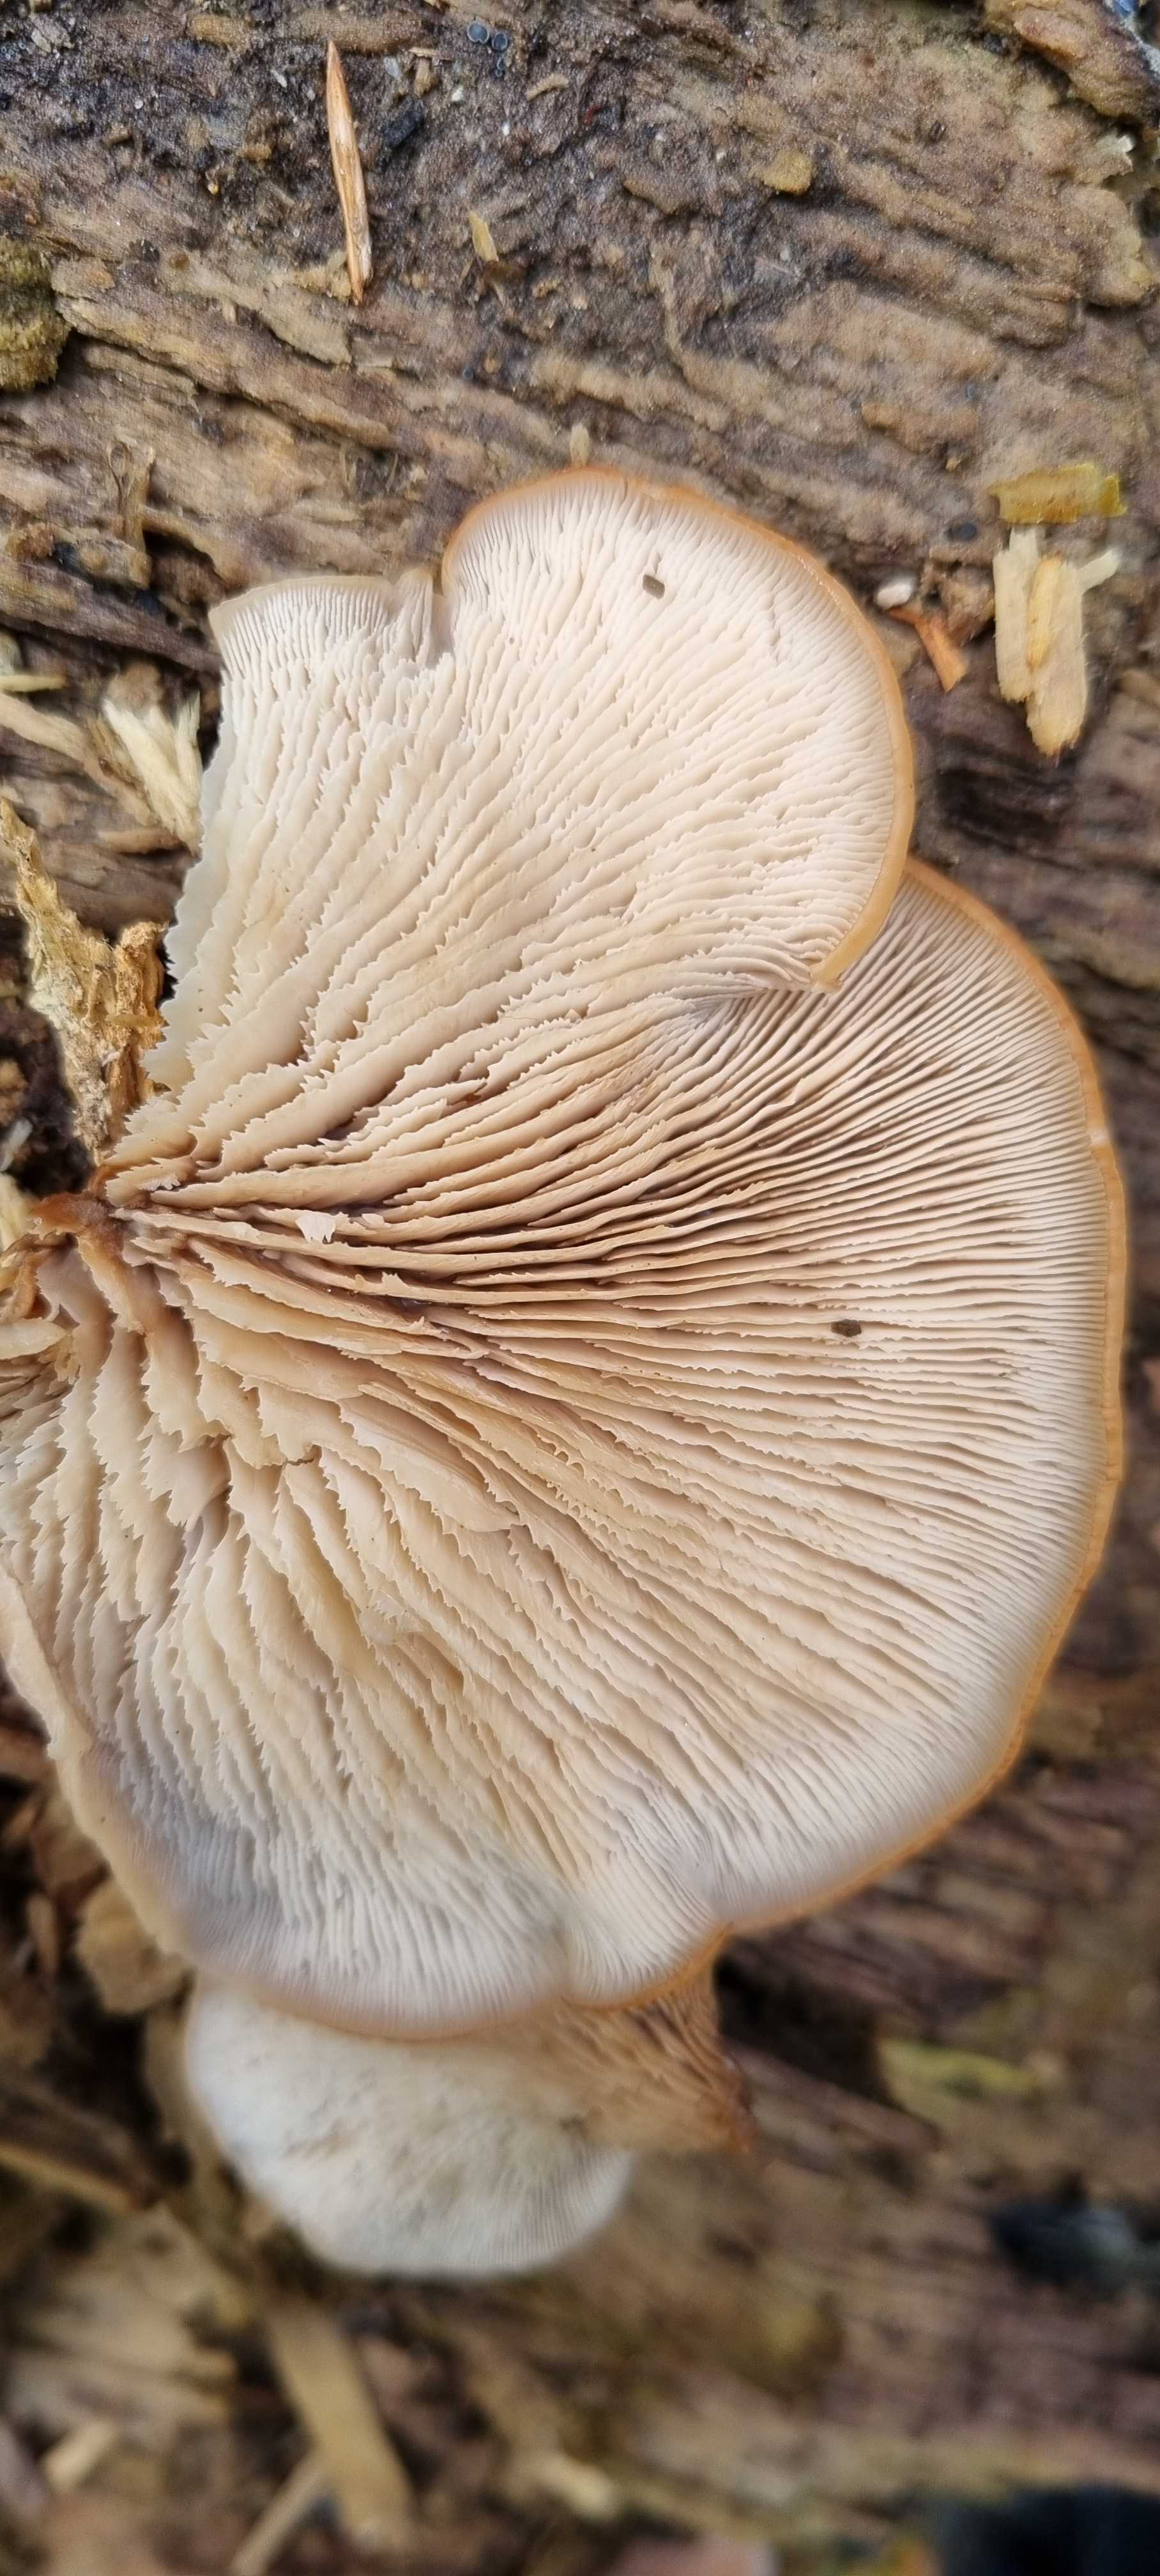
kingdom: Fungi
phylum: Basidiomycota
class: Agaricomycetes
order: Russulales
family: Auriscalpiaceae
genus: Lentinellus
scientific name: Lentinellus ursinus
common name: børstehåret savbladhat
